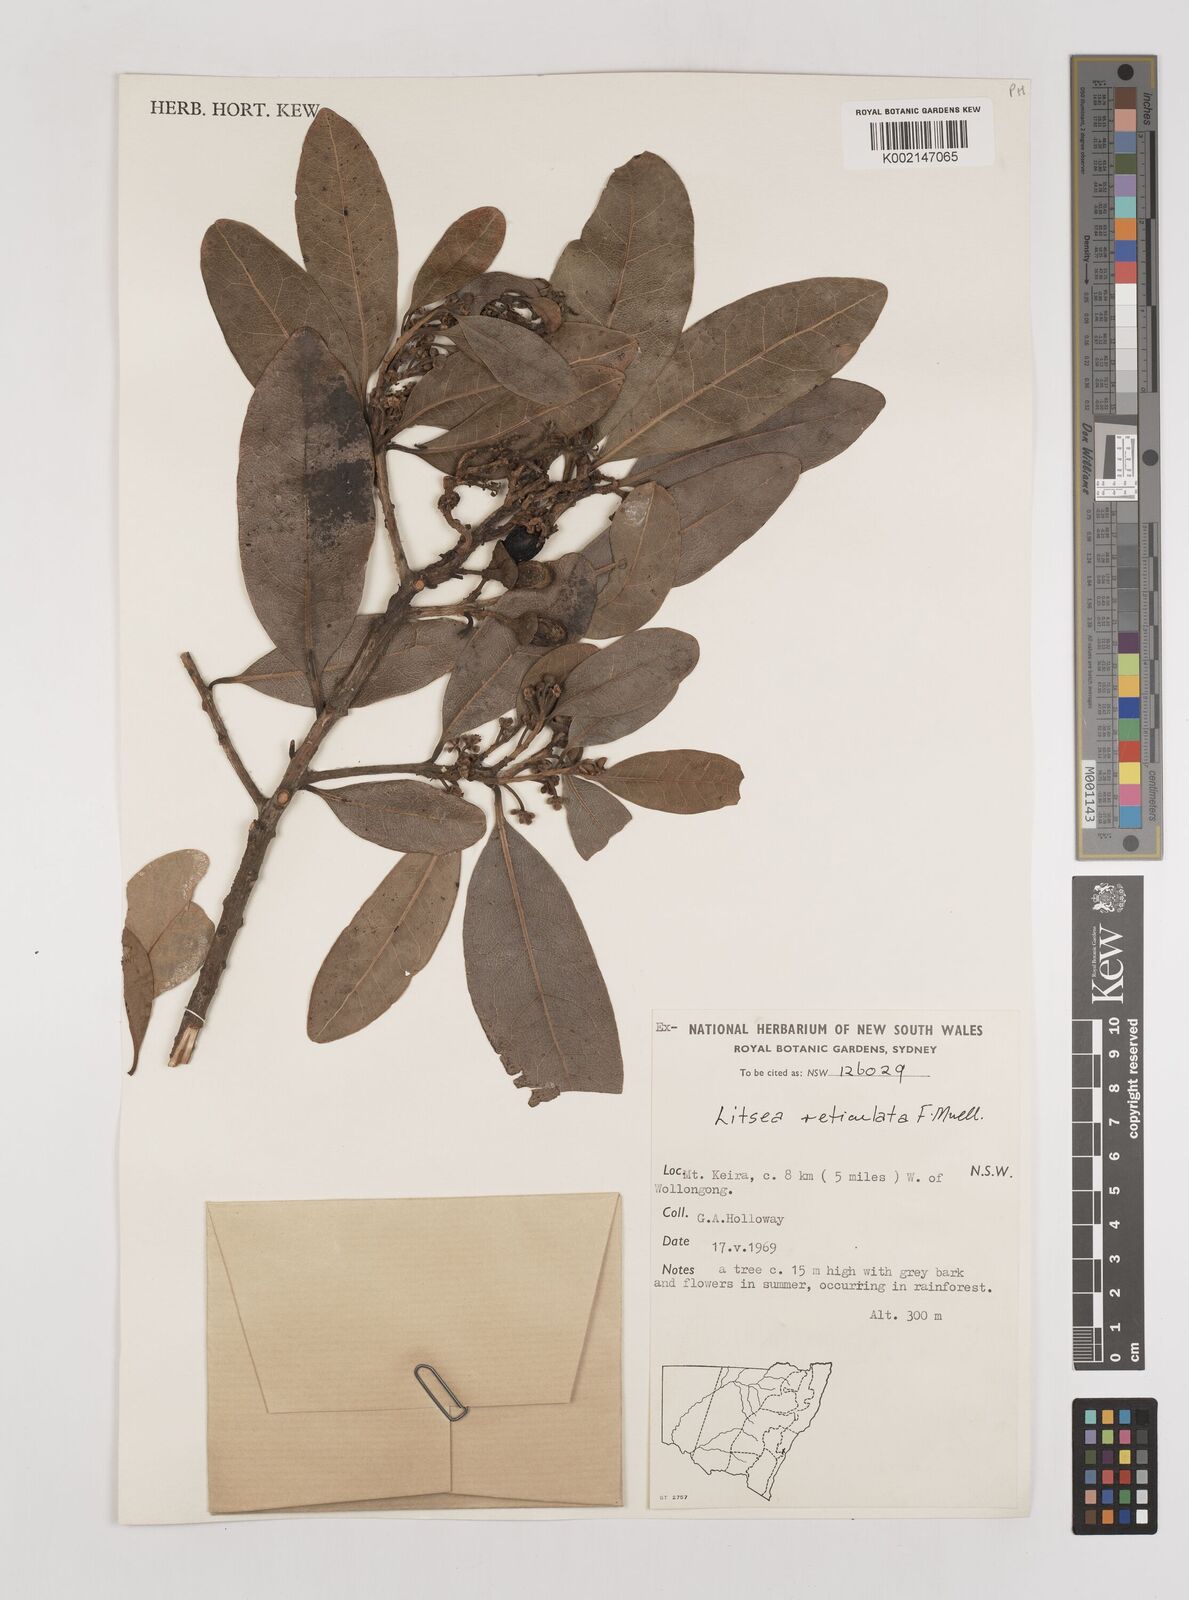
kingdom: Plantae
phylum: Tracheophyta
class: Magnoliopsida
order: Laurales
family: Lauraceae
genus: Litsea
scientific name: Litsea reticulata
